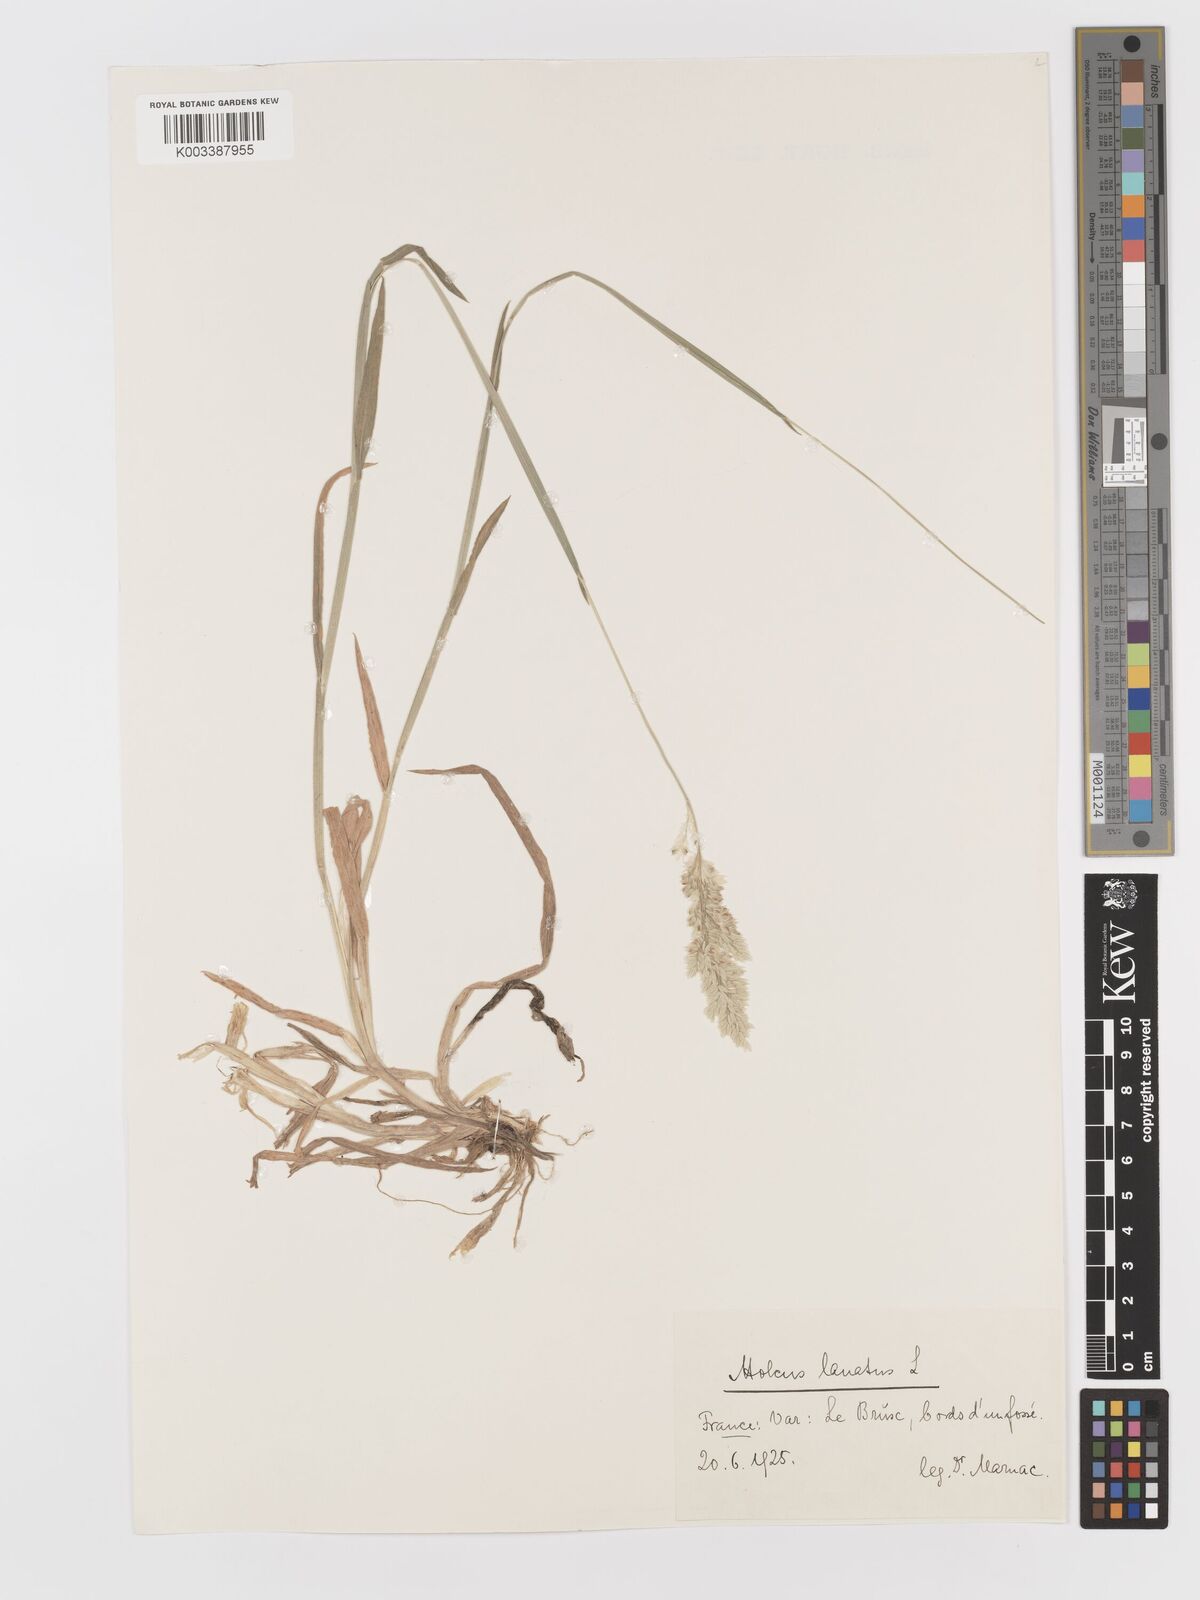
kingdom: Plantae
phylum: Tracheophyta
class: Liliopsida
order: Poales
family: Poaceae
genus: Holcus
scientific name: Holcus lanatus
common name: Yorkshire-fog
